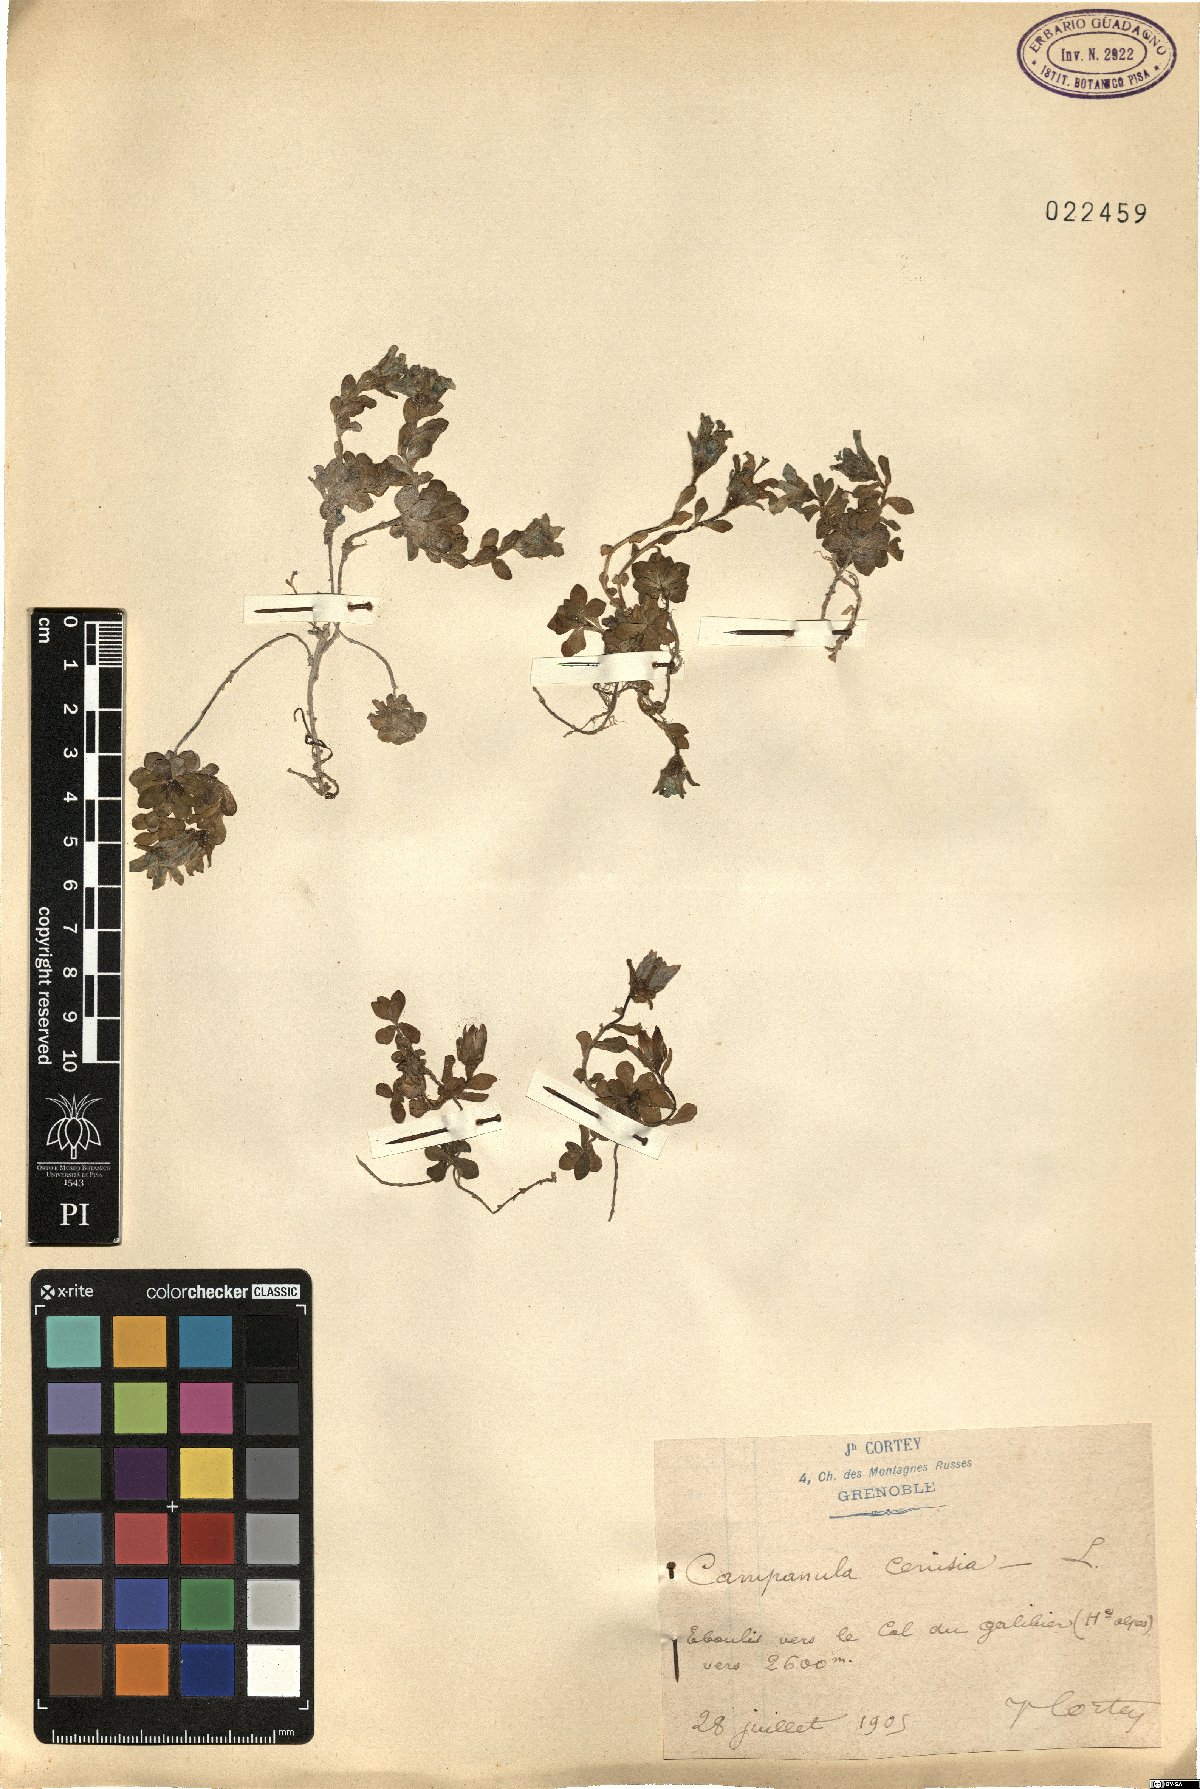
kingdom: Plantae
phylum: Tracheophyta
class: Magnoliopsida
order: Asterales
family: Campanulaceae
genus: Campanula
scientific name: Campanula cenisia
